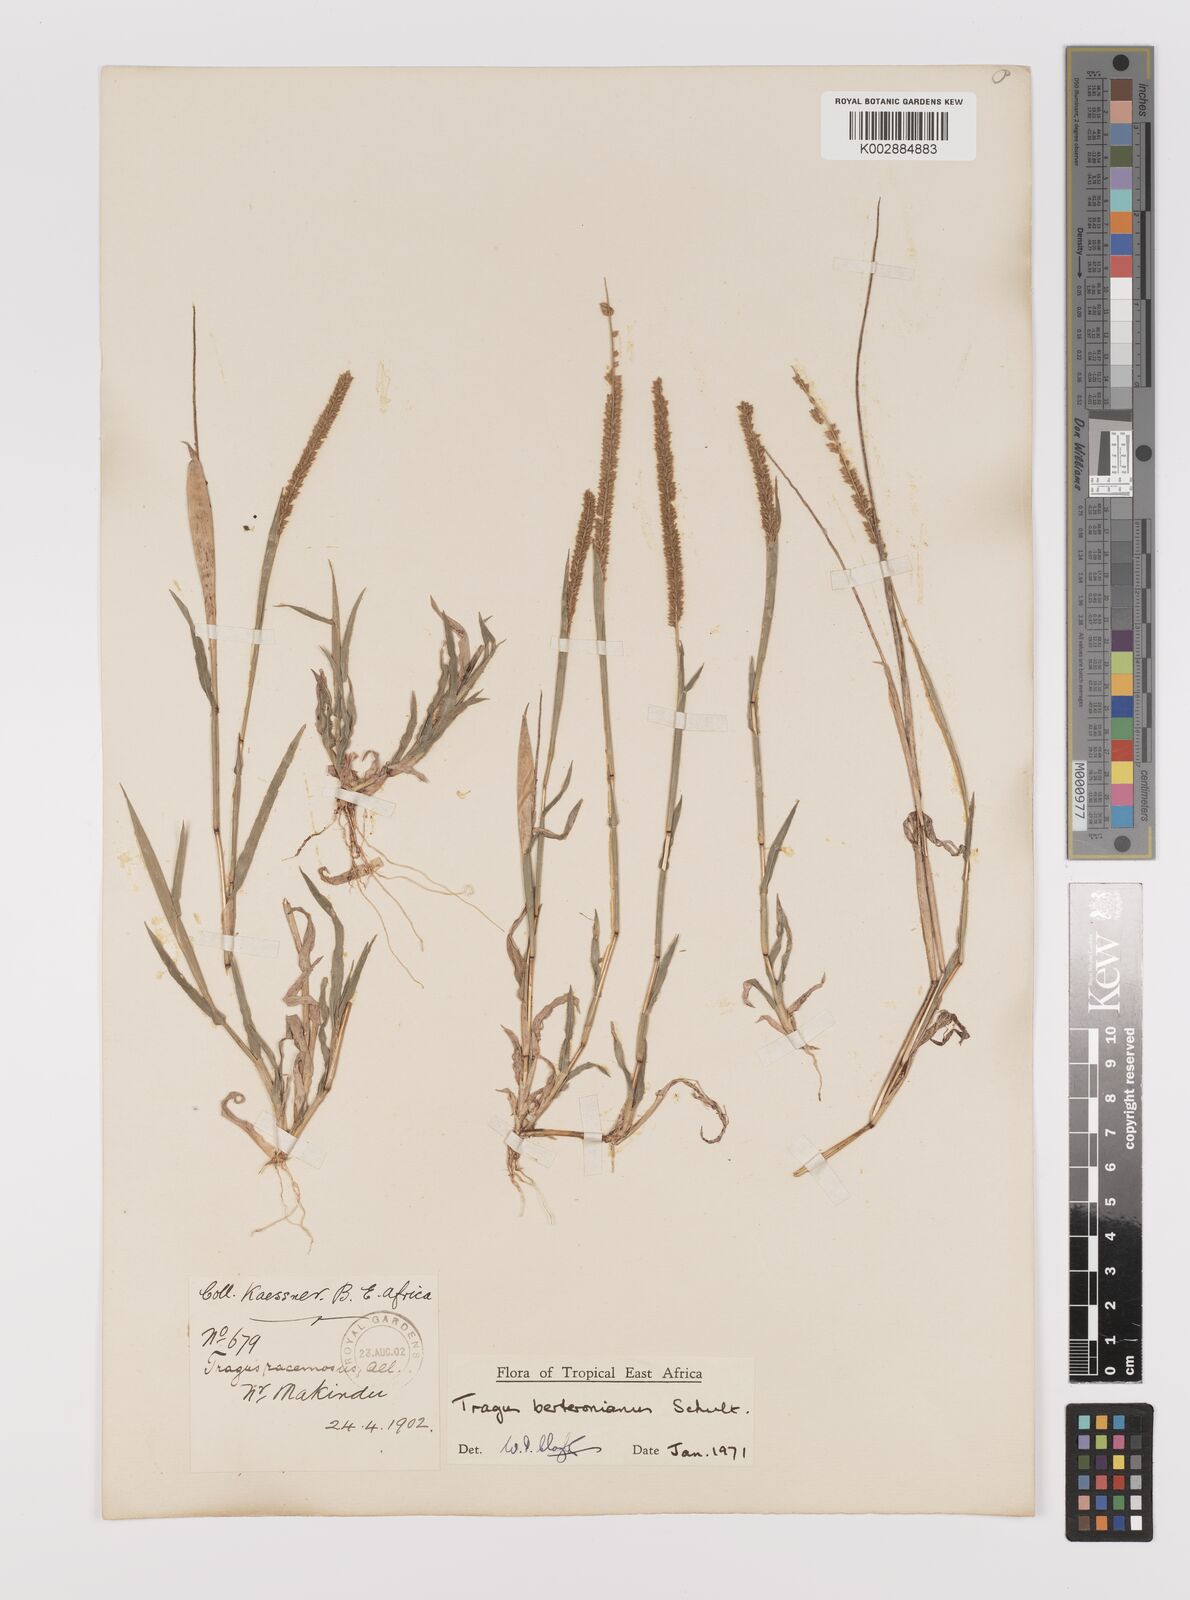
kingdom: Plantae
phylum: Tracheophyta
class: Liliopsida
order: Poales
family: Poaceae
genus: Tragus
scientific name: Tragus berteronianus
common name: African bur-grass
